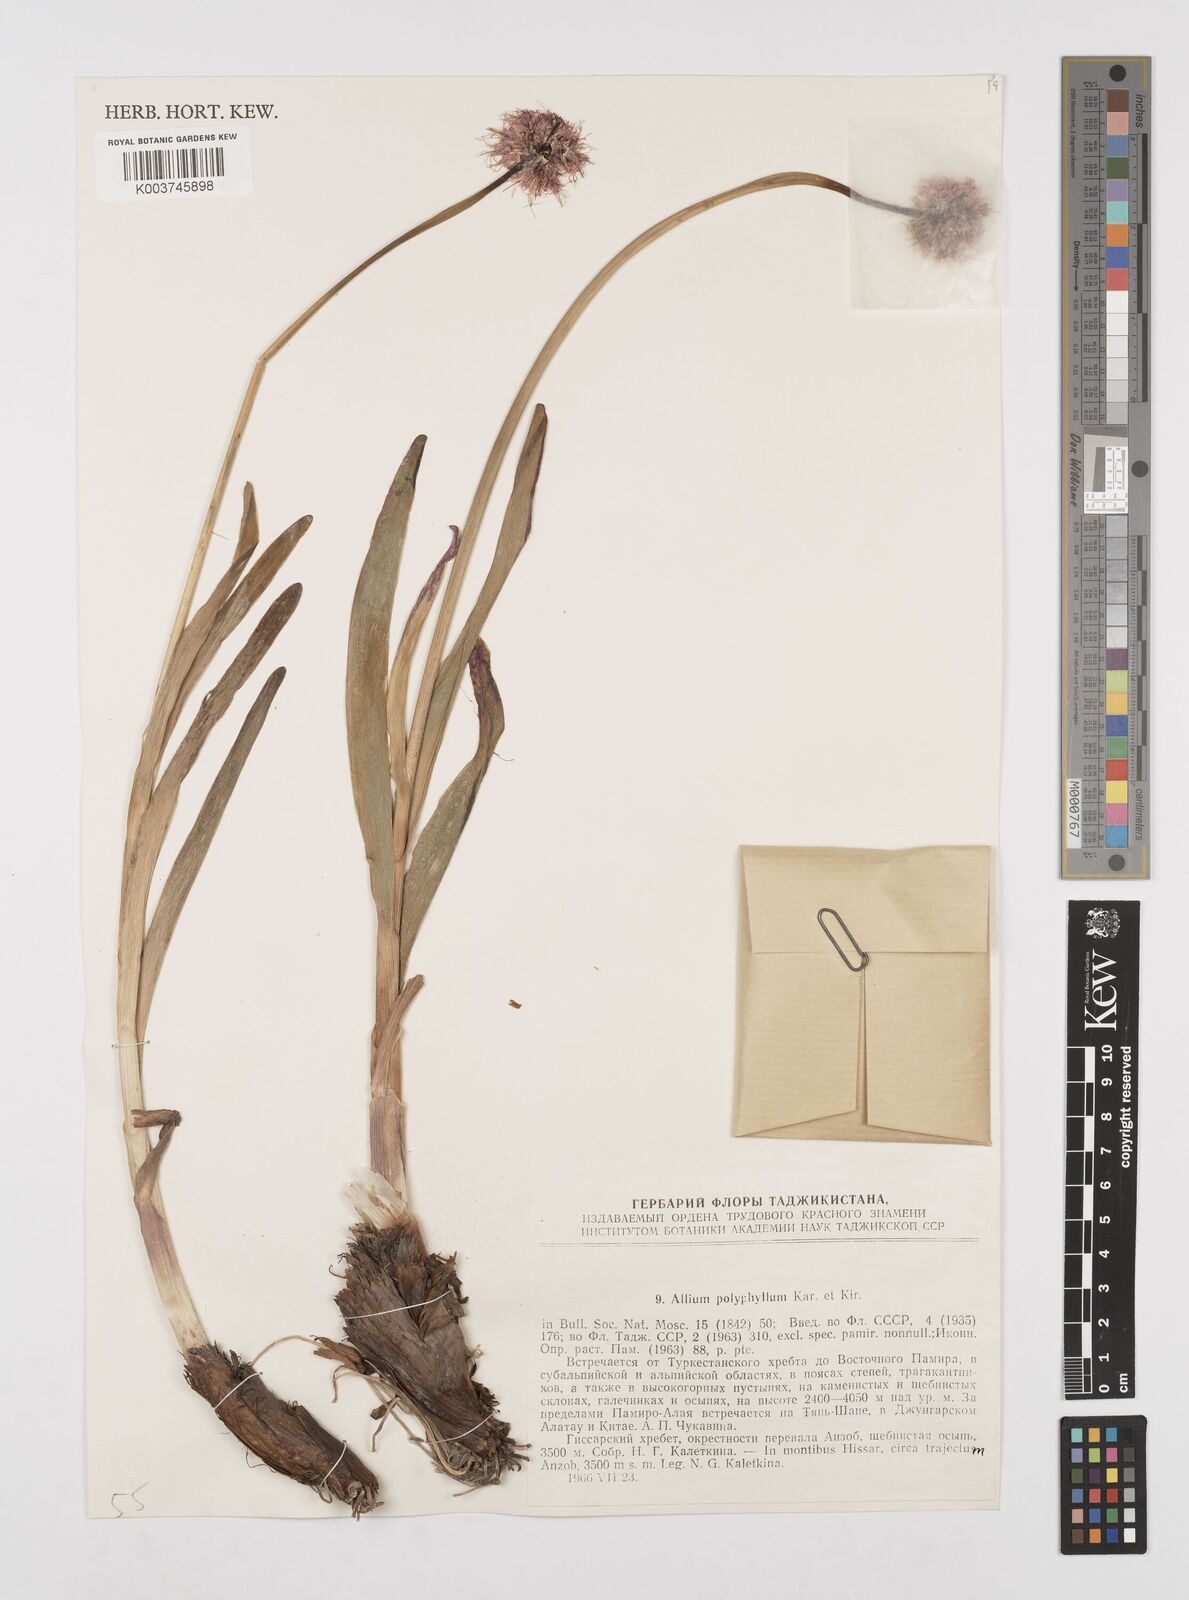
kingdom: Plantae
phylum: Tracheophyta
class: Liliopsida
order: Asparagales
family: Amaryllidaceae
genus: Allium
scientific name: Allium carolinianum
